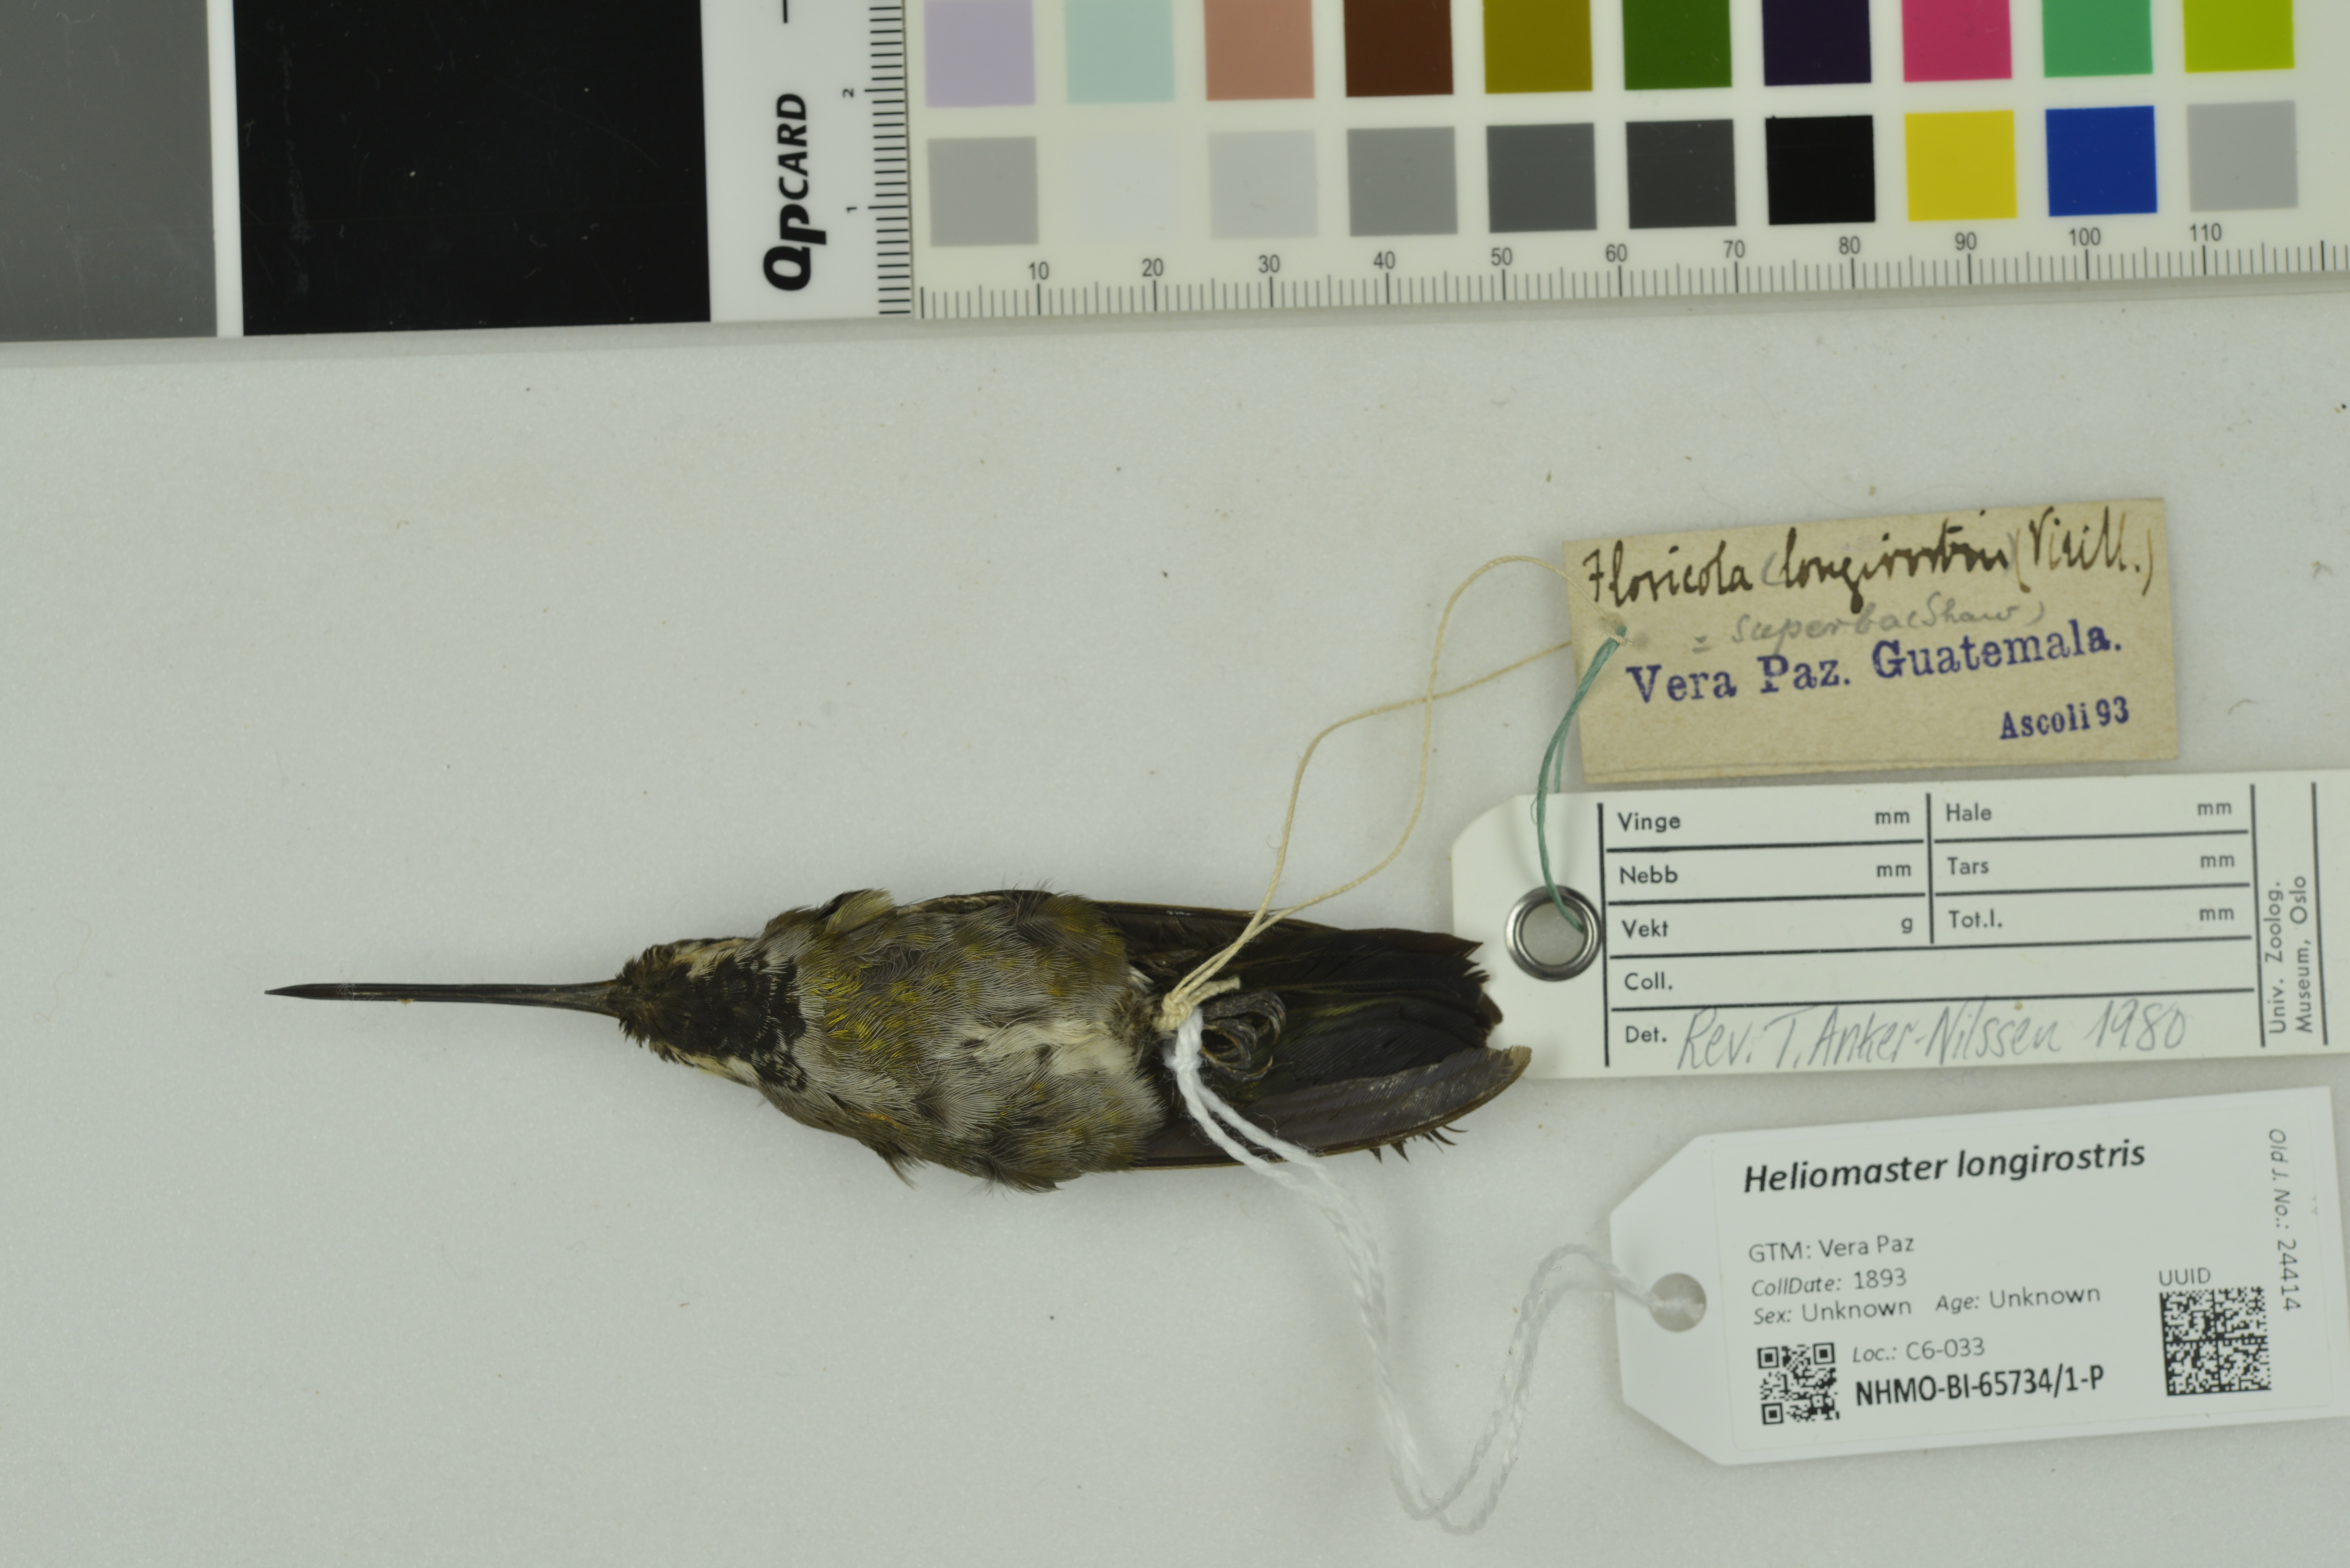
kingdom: Animalia
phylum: Chordata
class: Aves
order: Apodiformes
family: Trochilidae
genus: Heliomaster
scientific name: Heliomaster longirostris
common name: Long-billed starthroat
